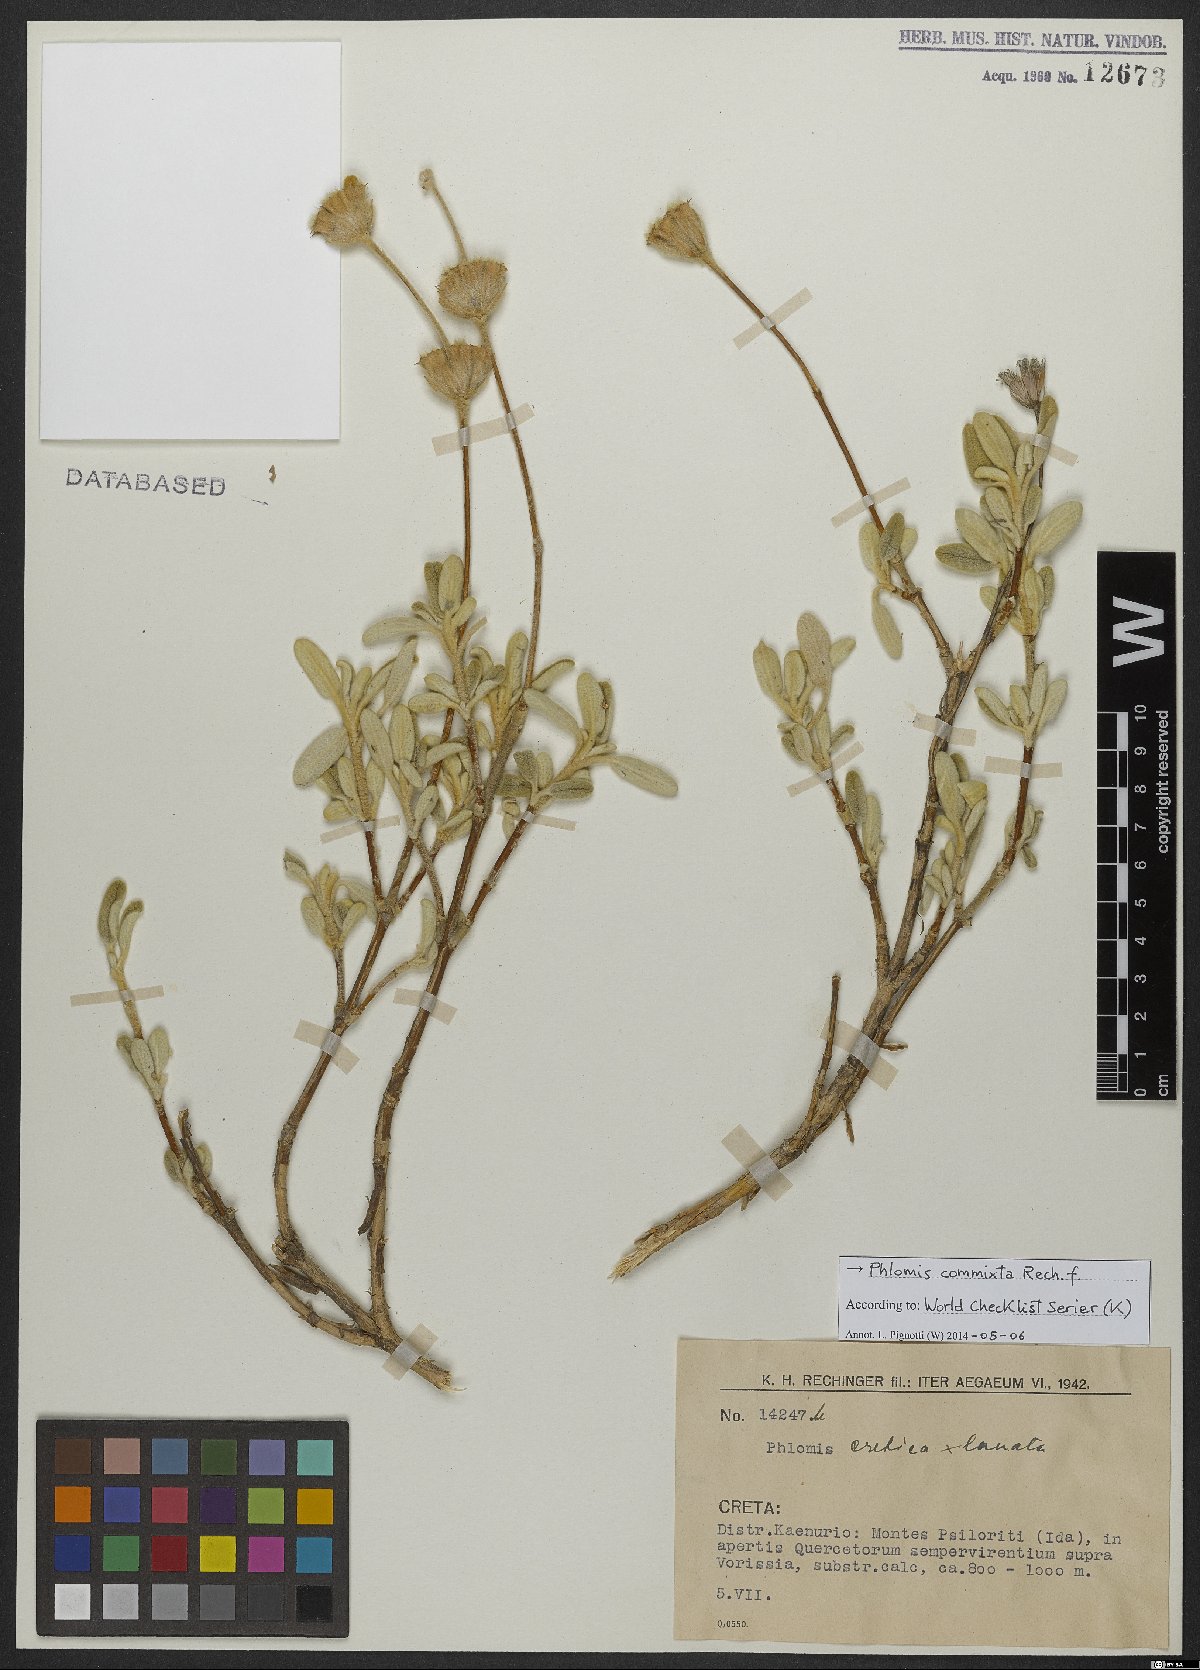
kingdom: Plantae
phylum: Tracheophyta
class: Magnoliopsida
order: Lamiales
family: Lamiaceae
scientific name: Lamiaceae
